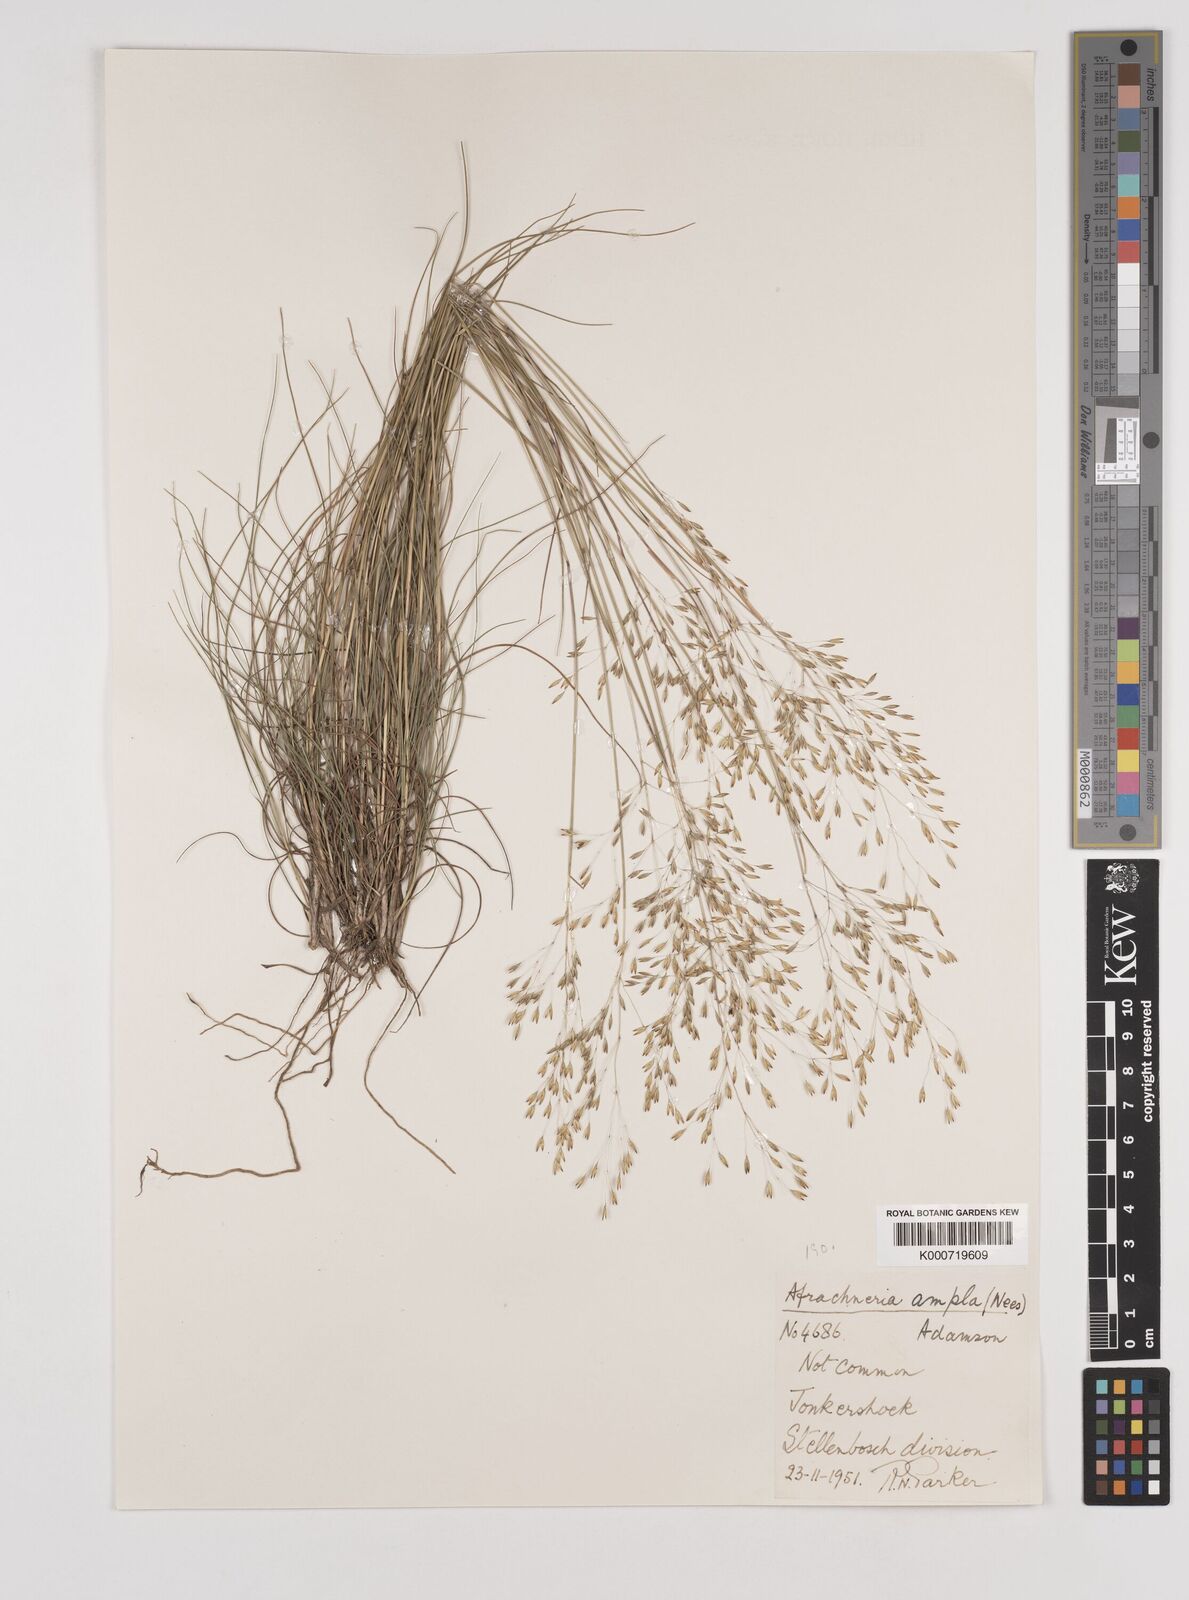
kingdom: Plantae
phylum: Tracheophyta
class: Liliopsida
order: Poales
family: Poaceae
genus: Pentameris
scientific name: Pentameris malouinensis
